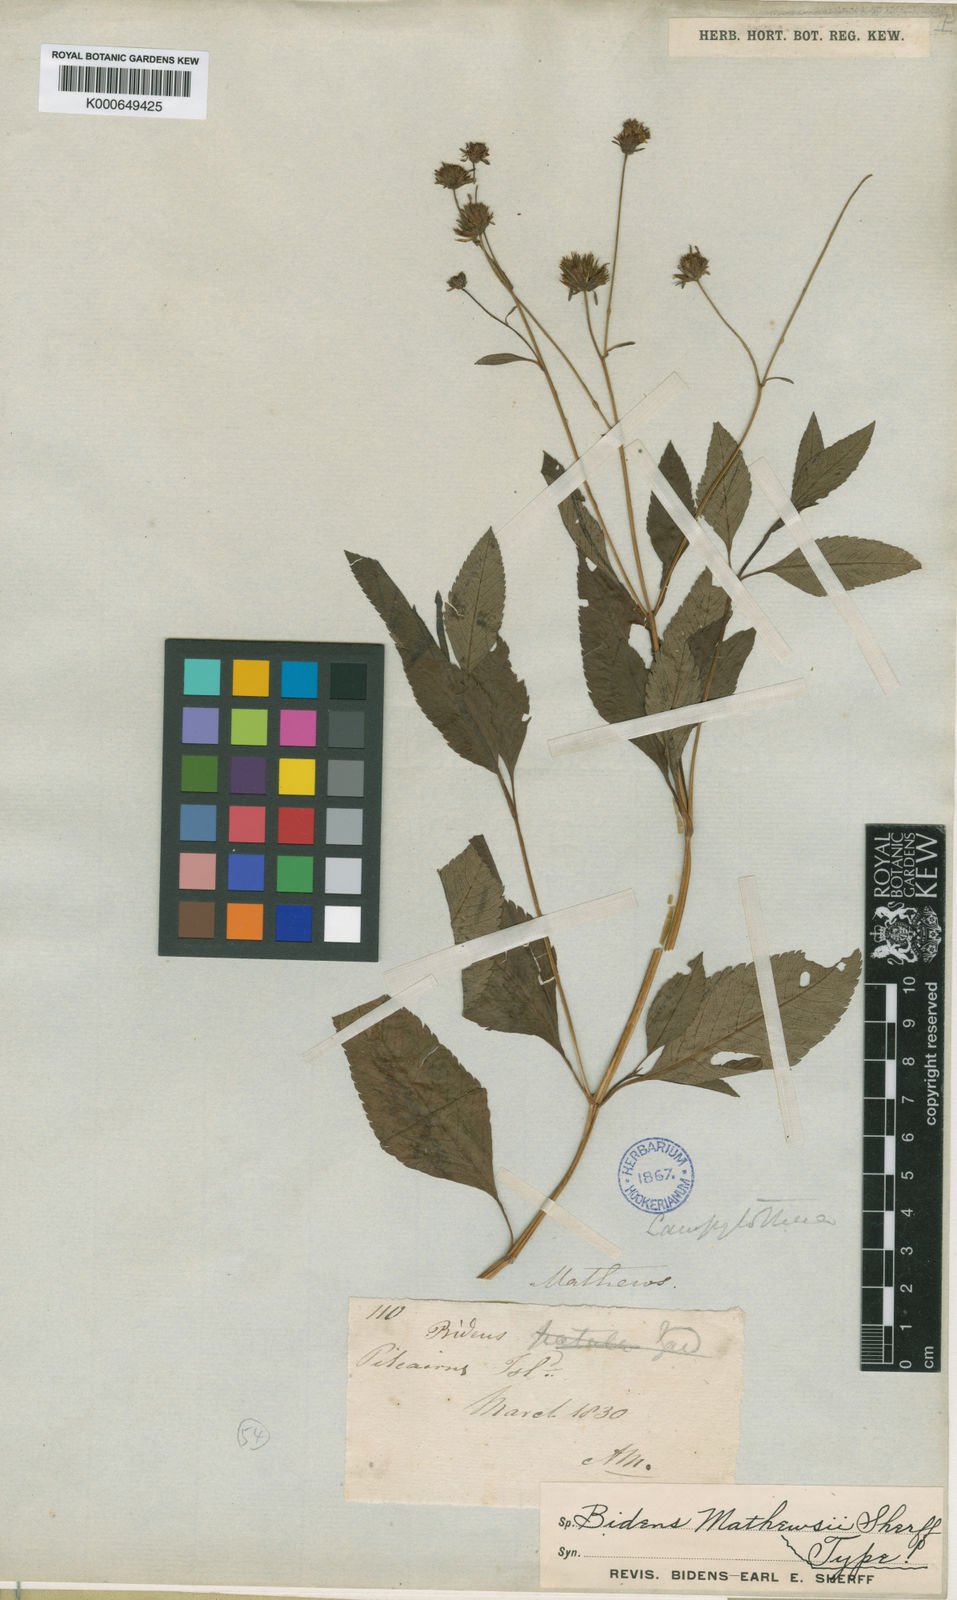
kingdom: Plantae
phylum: Tracheophyta
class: Magnoliopsida
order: Asterales
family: Asteraceae
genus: Bidens
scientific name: Bidens mathewsii
